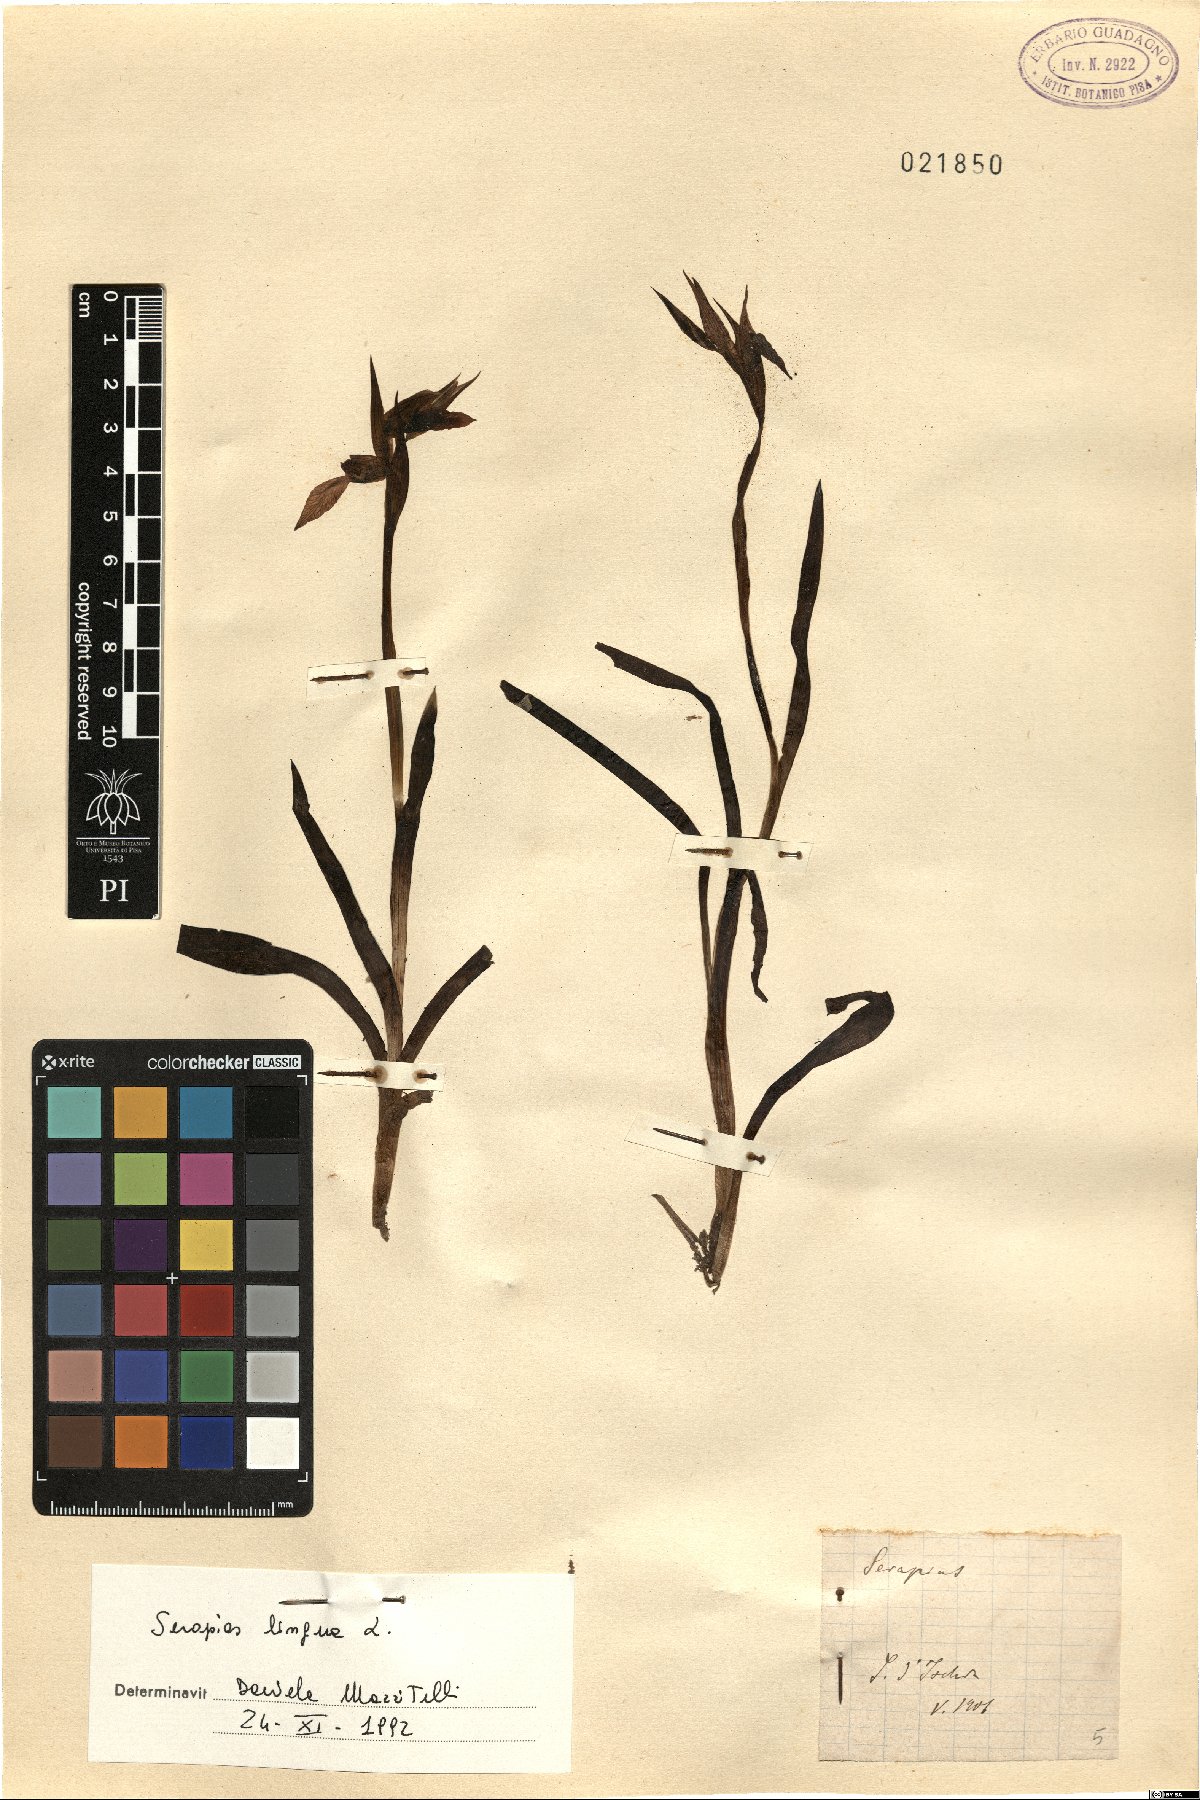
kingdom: Plantae
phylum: Tracheophyta
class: Liliopsida
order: Asparagales
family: Orchidaceae
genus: Serapias
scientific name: Serapias lingua
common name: Tongue-orchid
